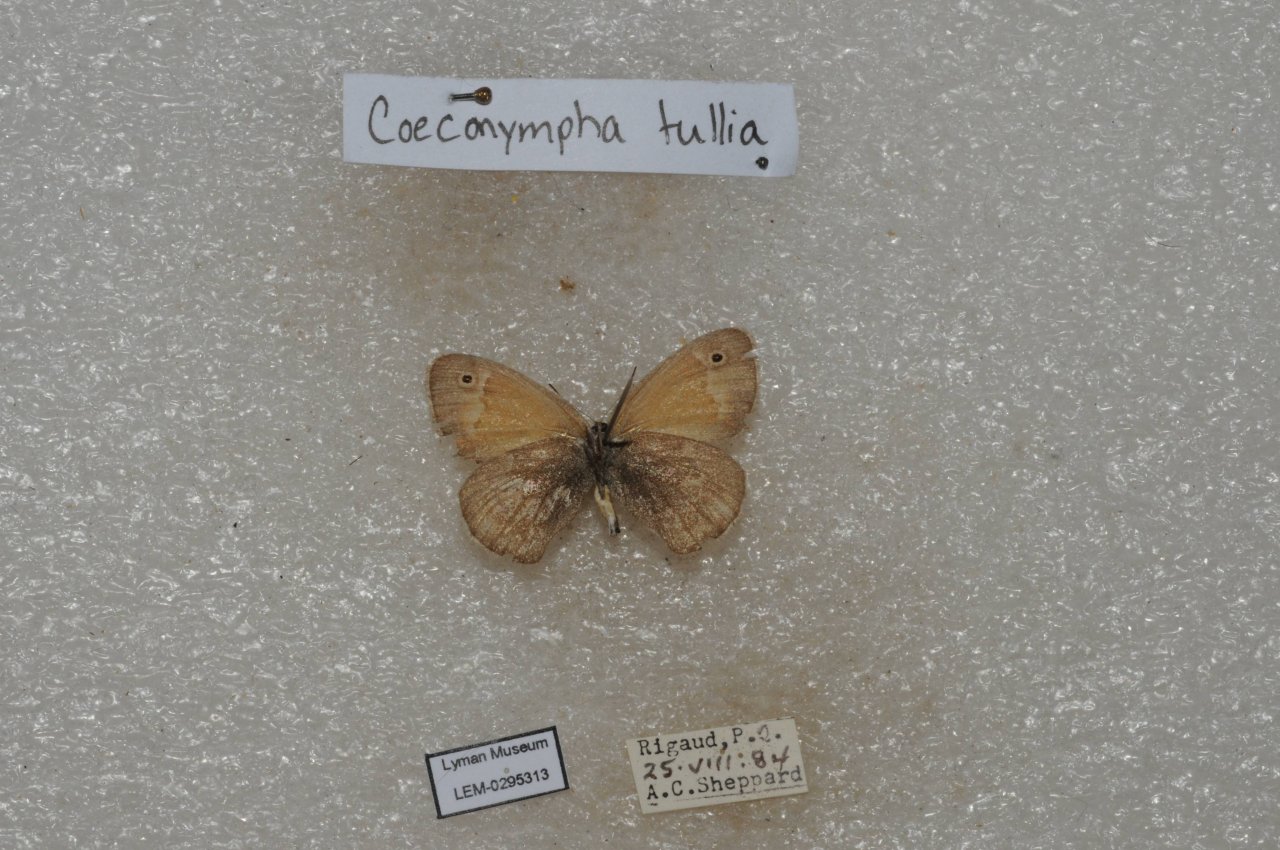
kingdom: Animalia
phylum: Arthropoda
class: Insecta
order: Lepidoptera
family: Nymphalidae
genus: Coenonympha
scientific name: Coenonympha tullia
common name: Large Heath
